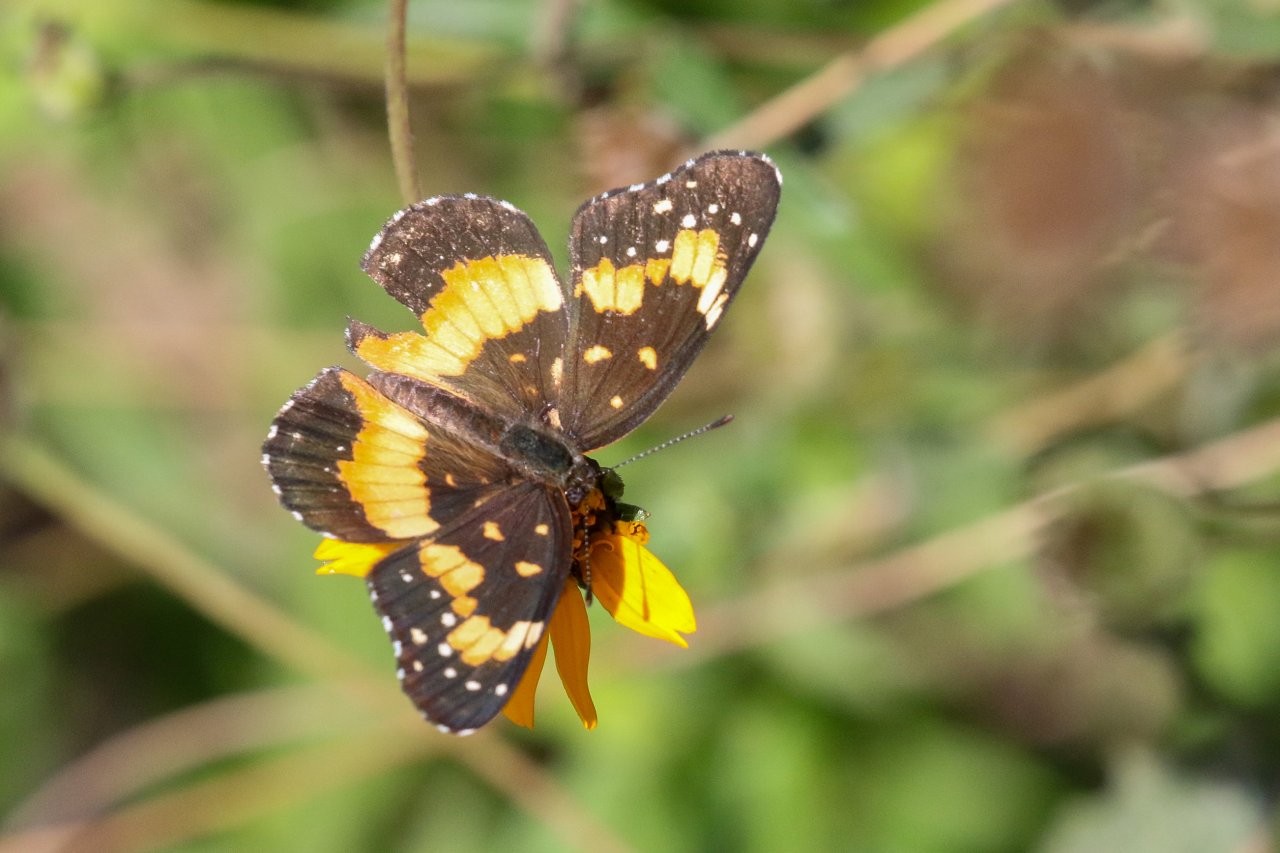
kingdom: Animalia
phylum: Arthropoda
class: Insecta
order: Lepidoptera
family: Nymphalidae
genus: Chlosyne
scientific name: Chlosyne lacinia
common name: Bordered Patch
